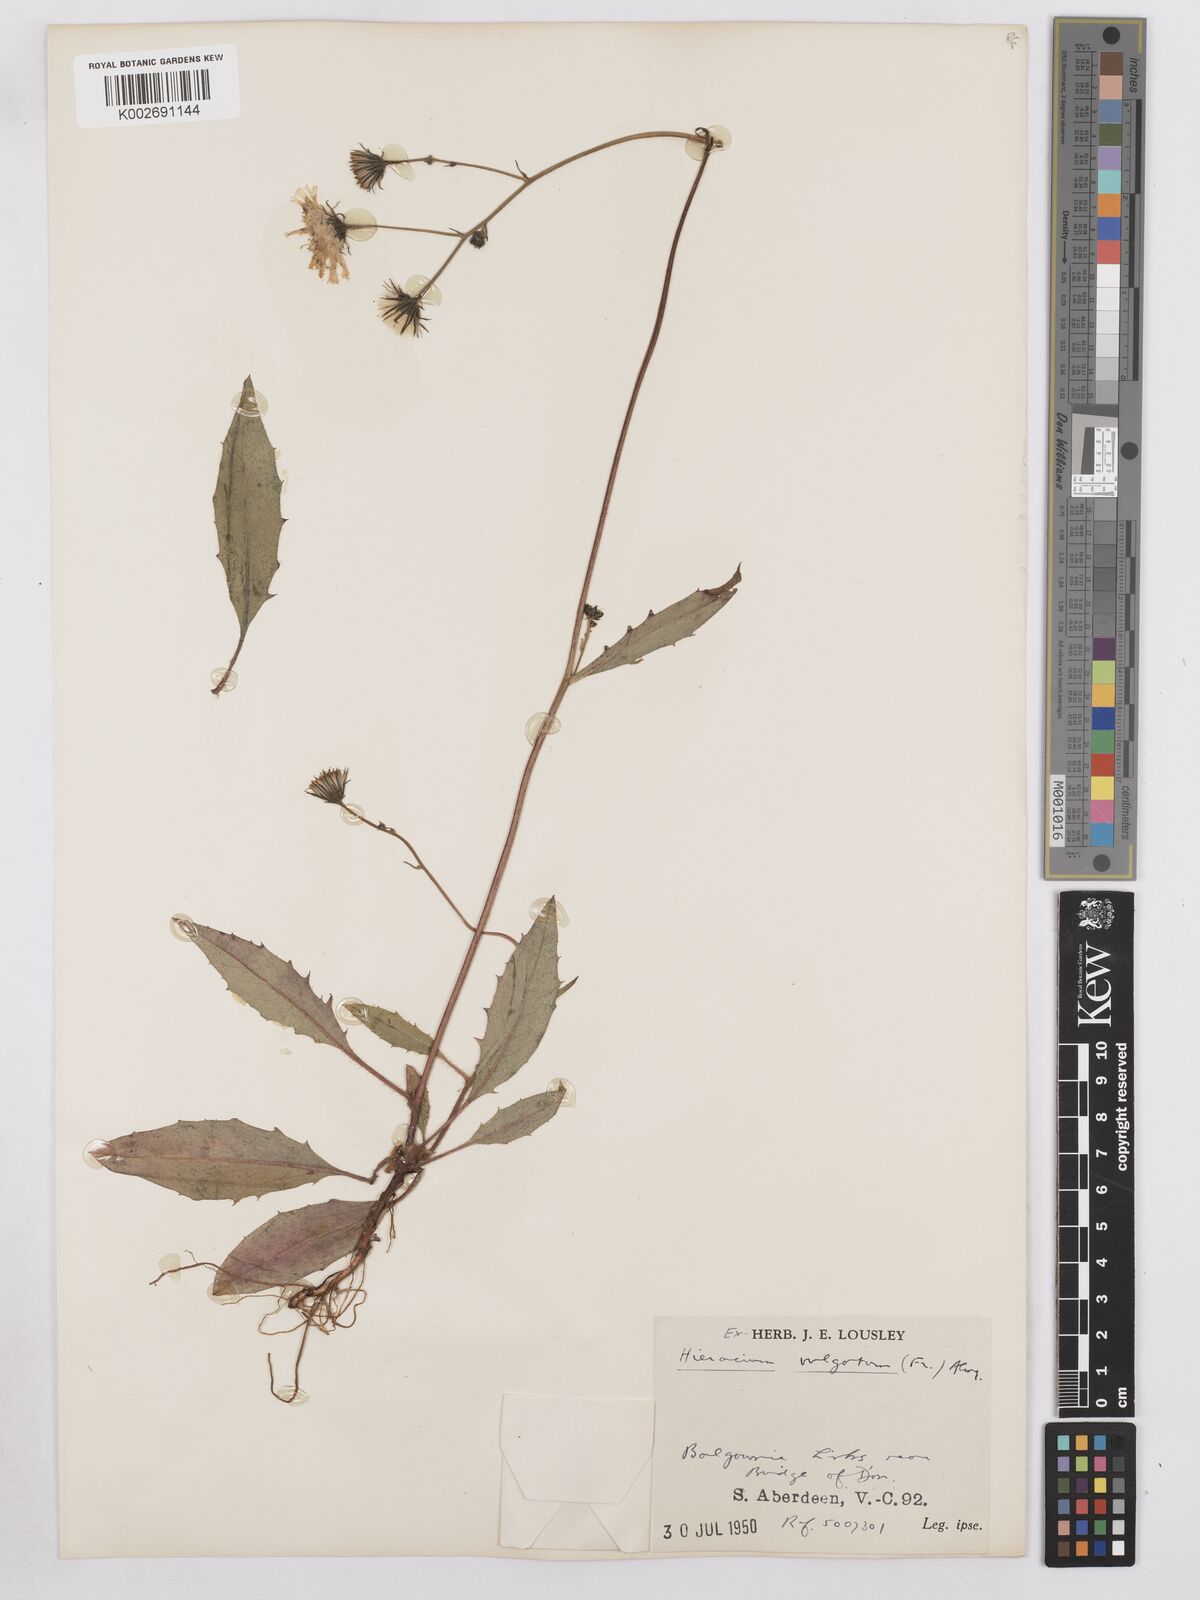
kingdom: Plantae
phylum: Tracheophyta
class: Magnoliopsida
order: Asterales
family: Asteraceae
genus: Hieracium
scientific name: Hieracium lachenalii
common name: Common hawkweed
